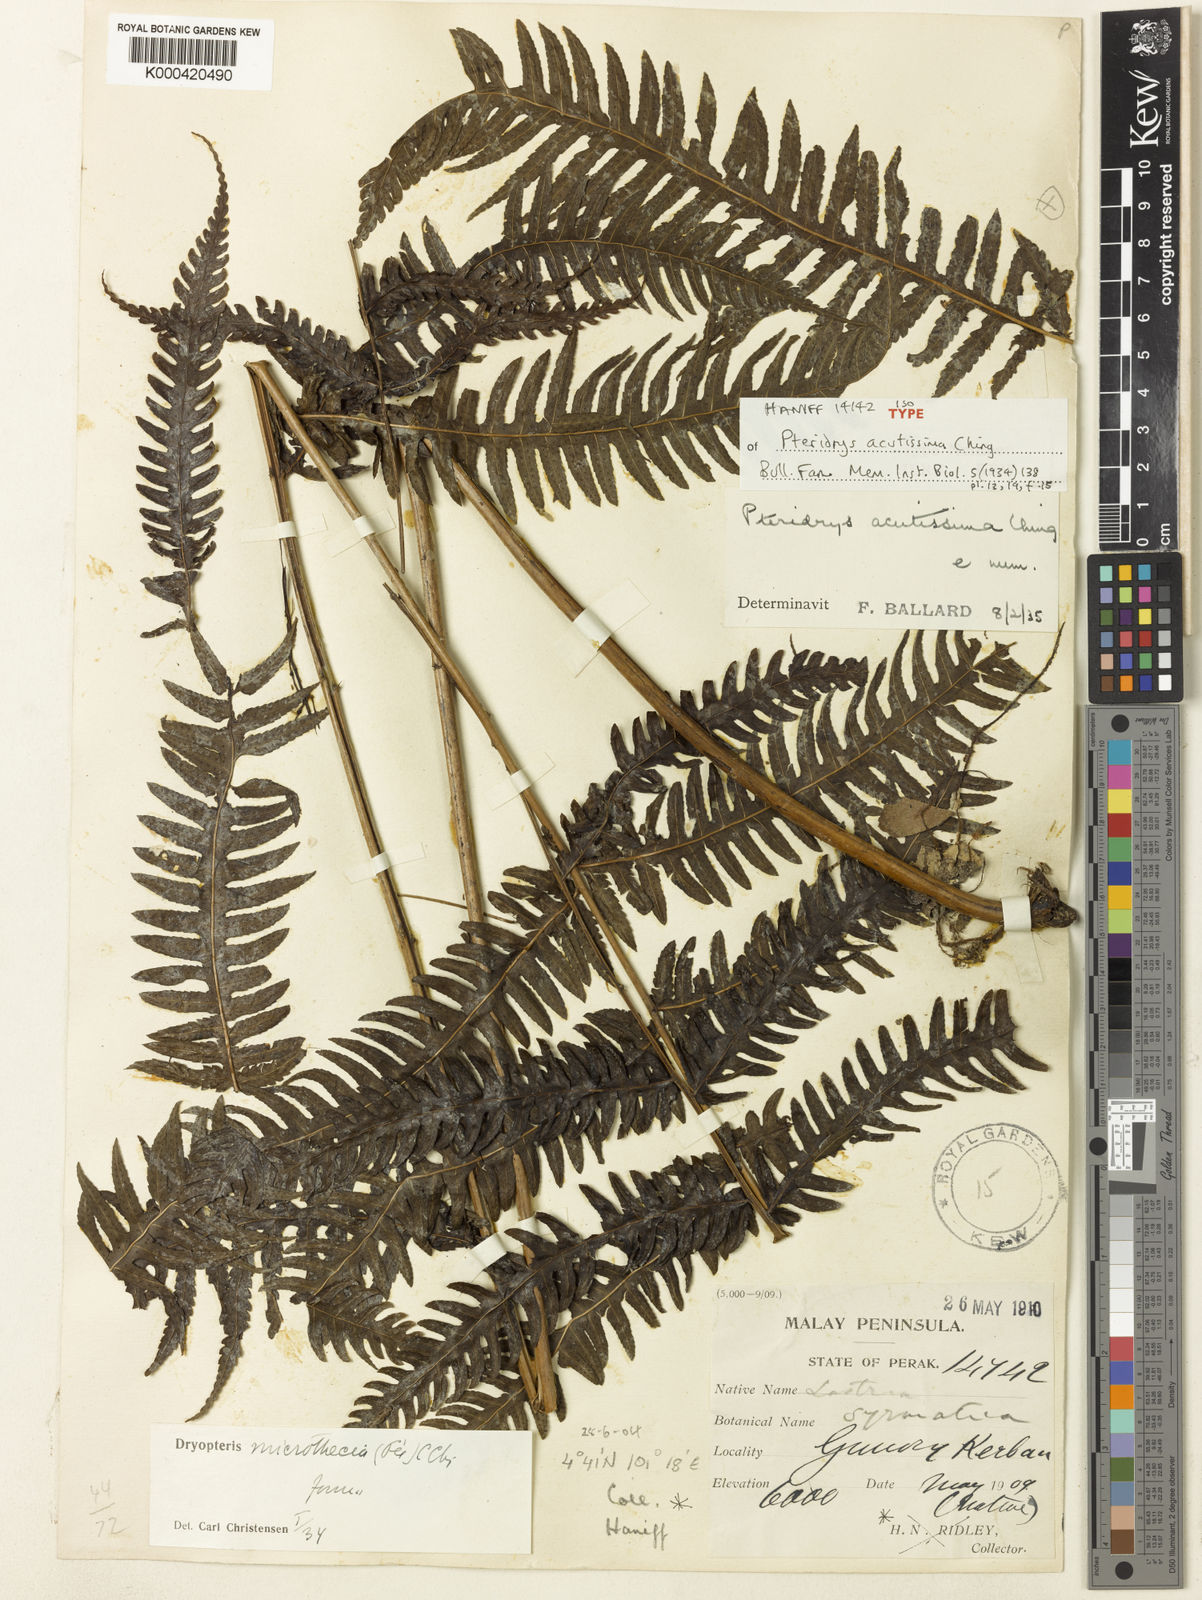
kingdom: Plantae
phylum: Tracheophyta
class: Polypodiopsida
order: Polypodiales
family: Tectariaceae
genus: Pteridrys
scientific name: Pteridrys acutissima
